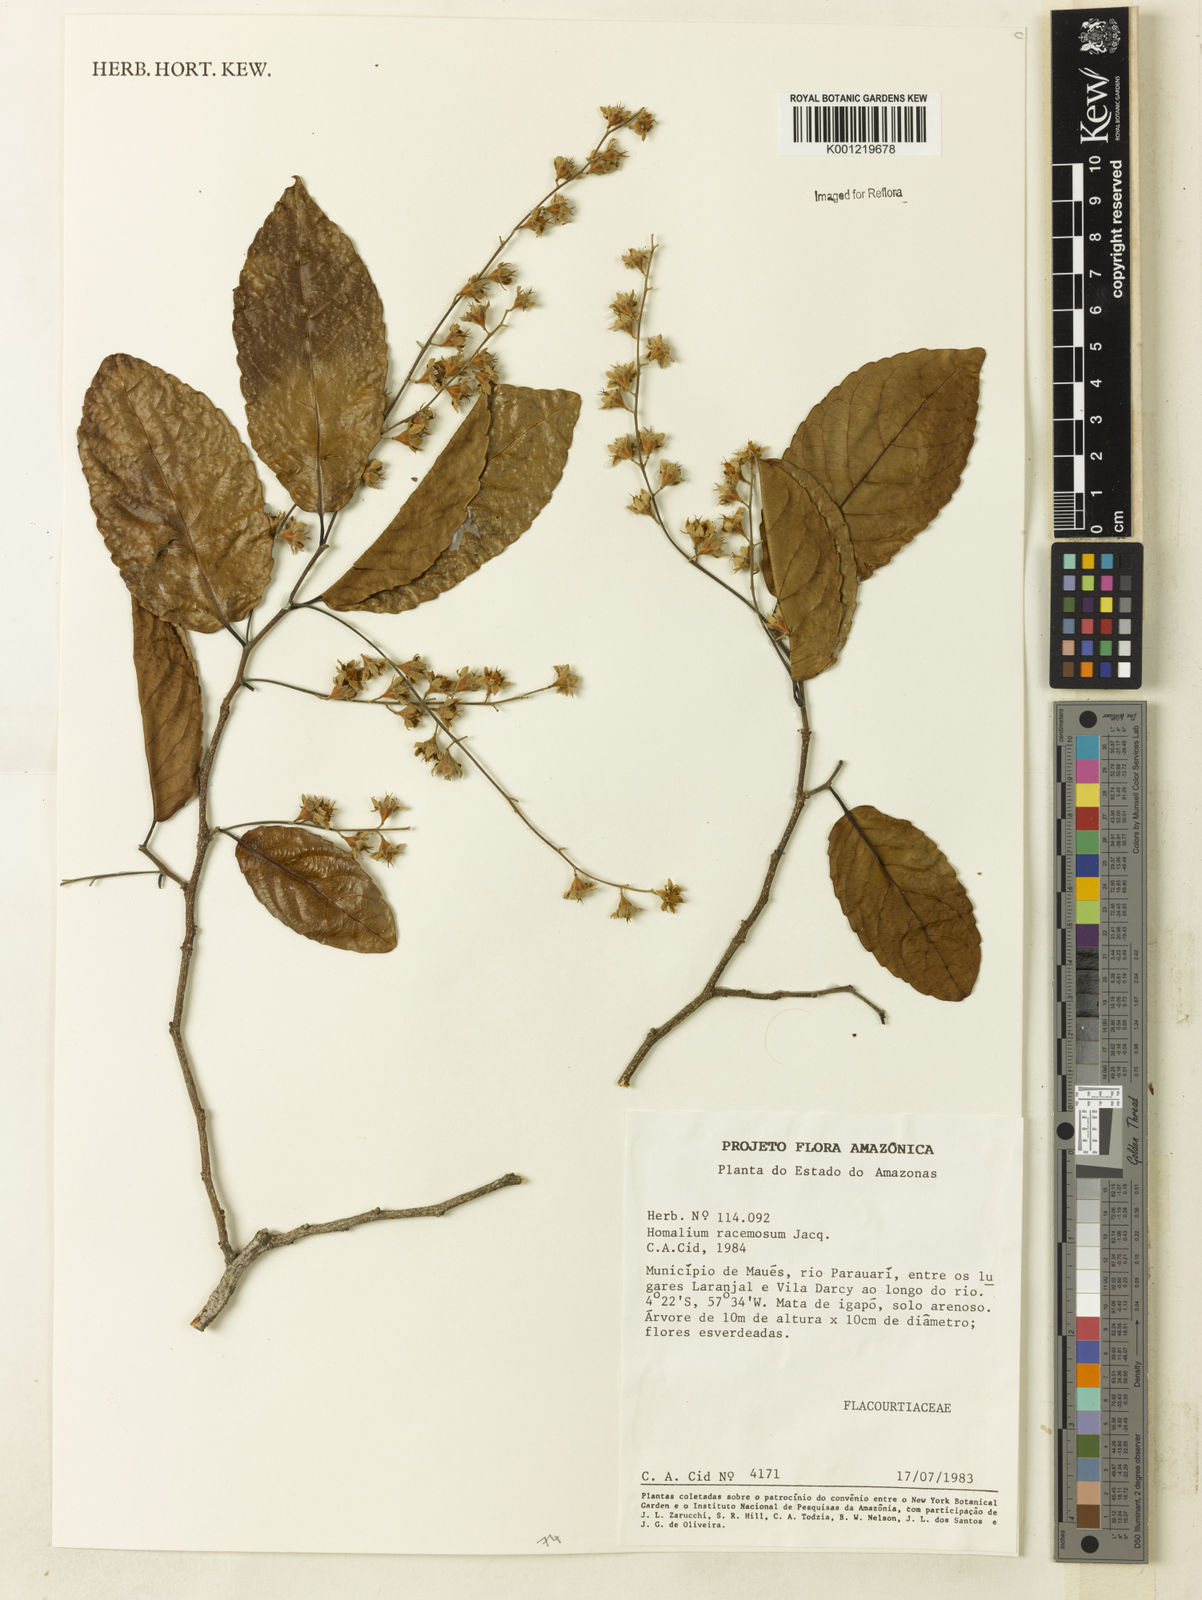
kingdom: Plantae
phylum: Tracheophyta
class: Magnoliopsida
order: Malpighiales
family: Salicaceae
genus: Homalium
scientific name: Homalium racemosum
